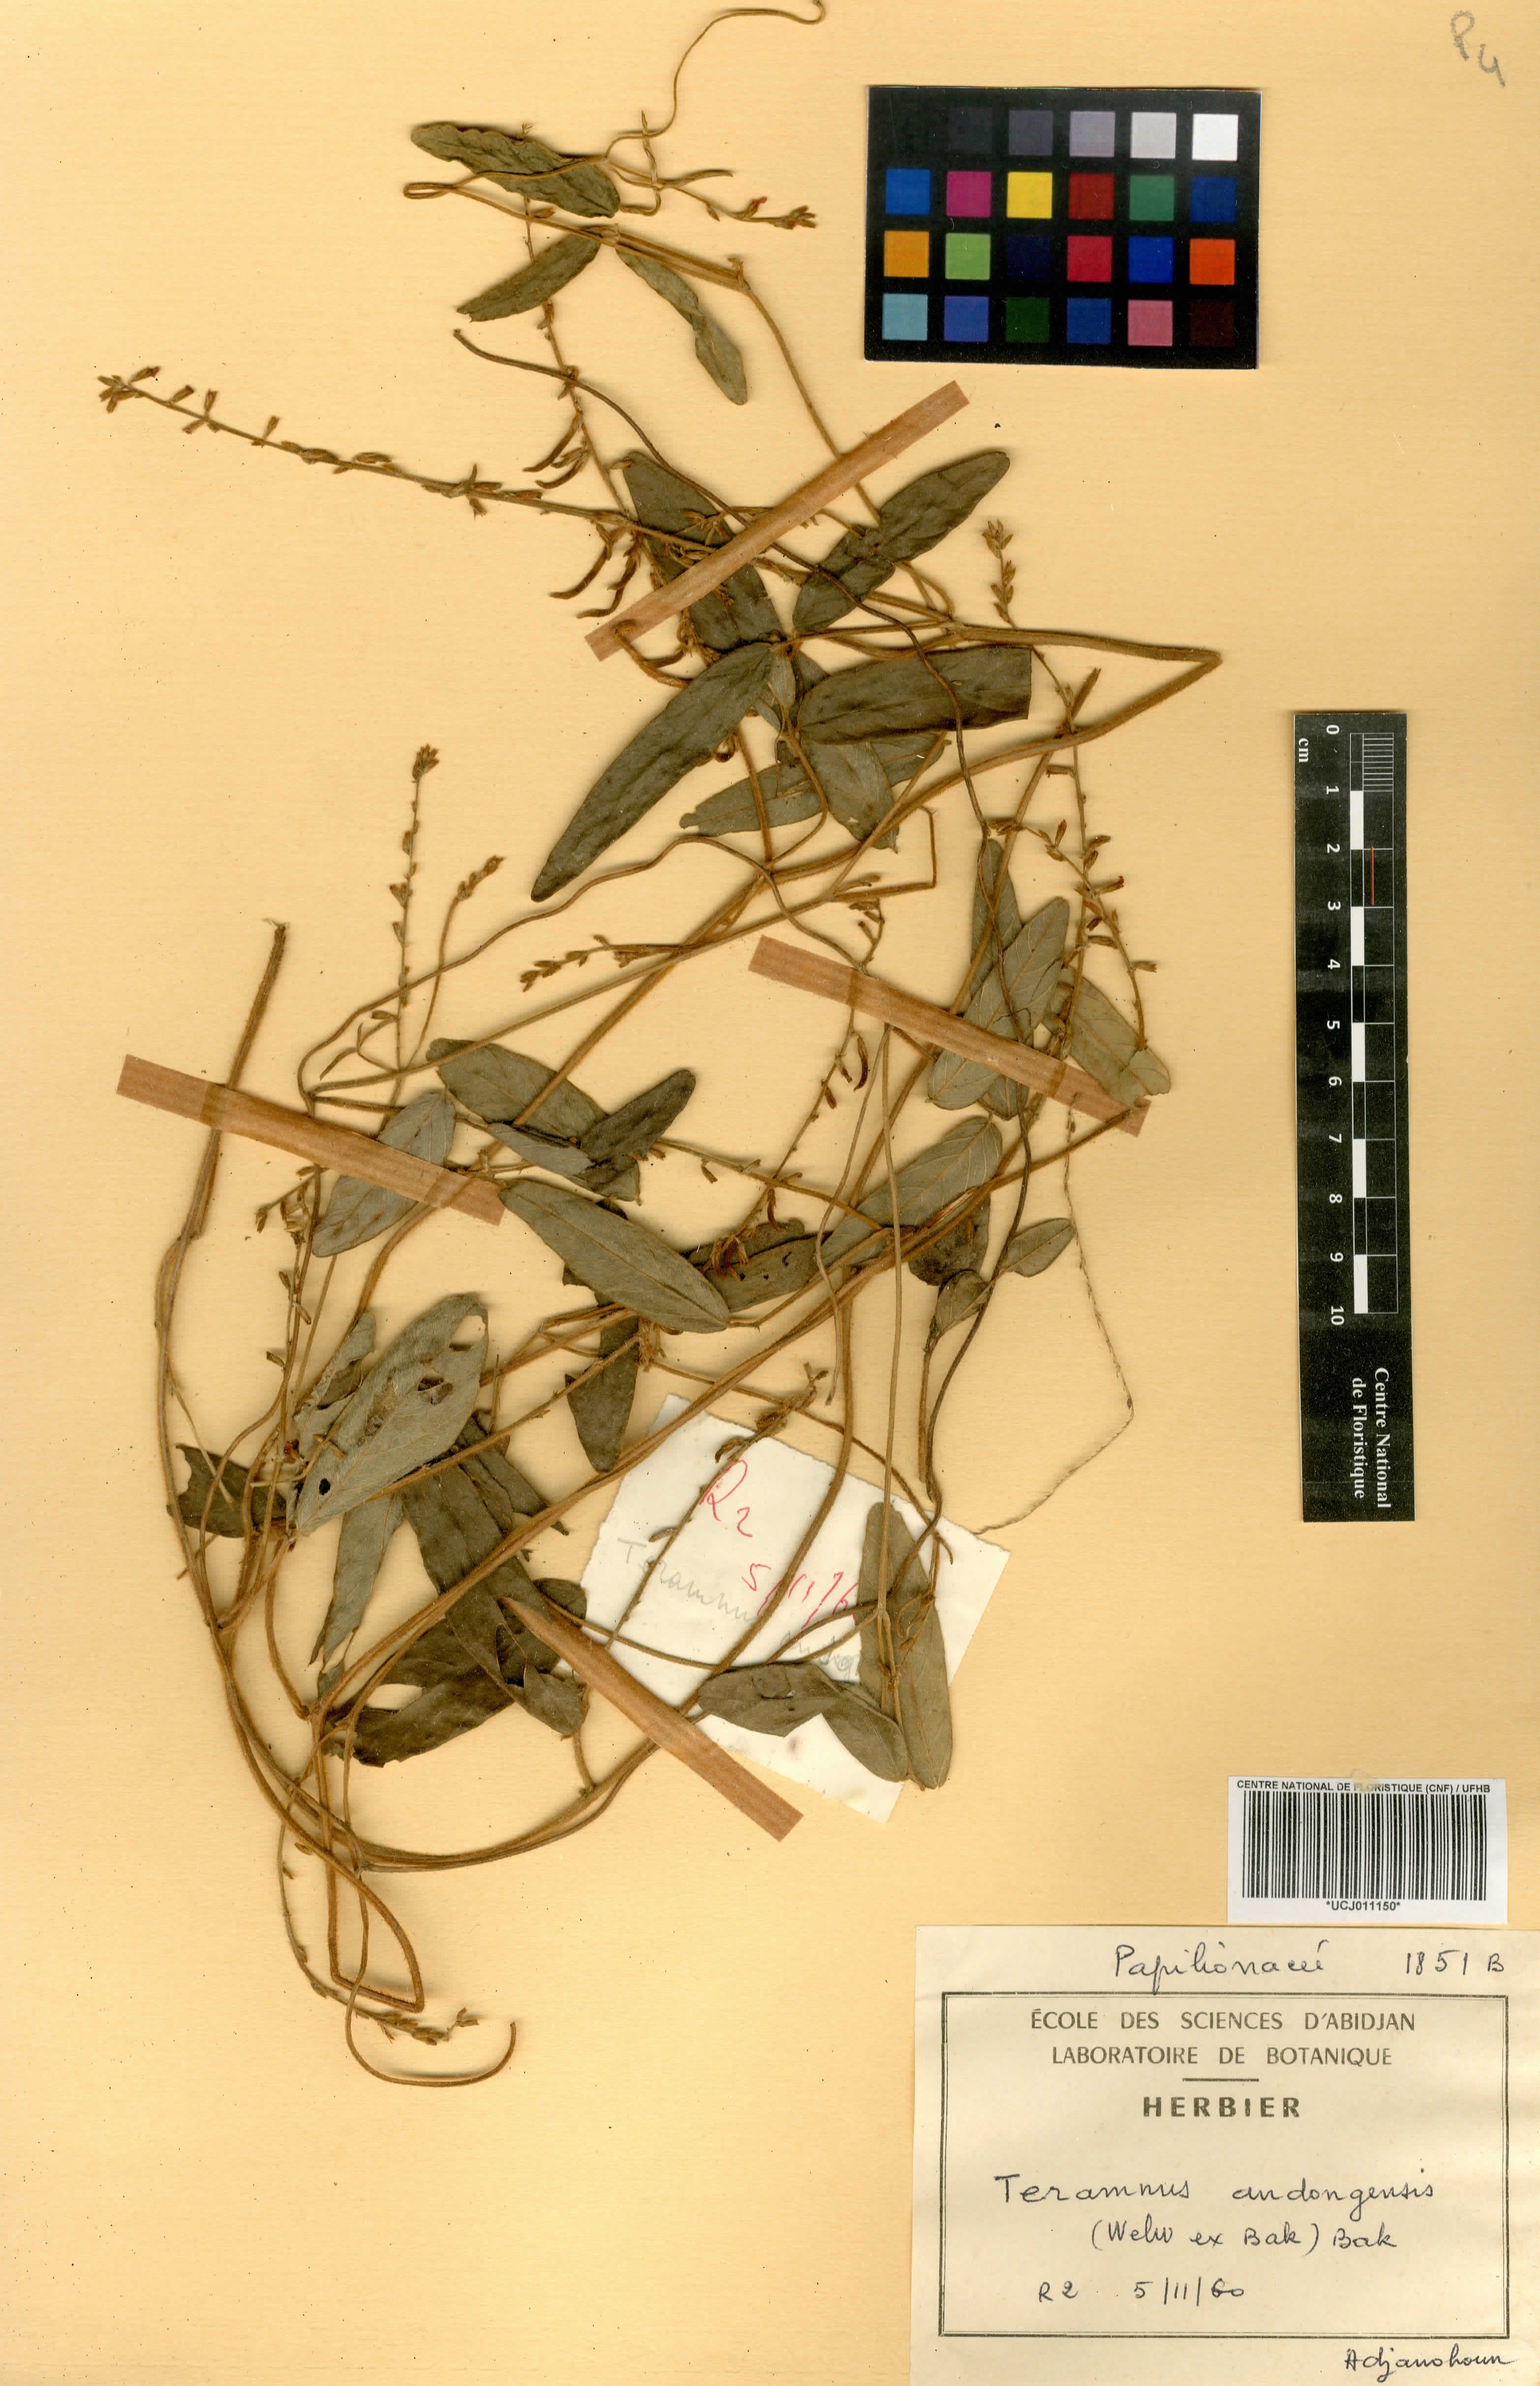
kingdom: Plantae
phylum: Tracheophyta
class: Magnoliopsida
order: Fabales
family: Fabaceae
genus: Teramnus
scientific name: Teramnus uncinatus
